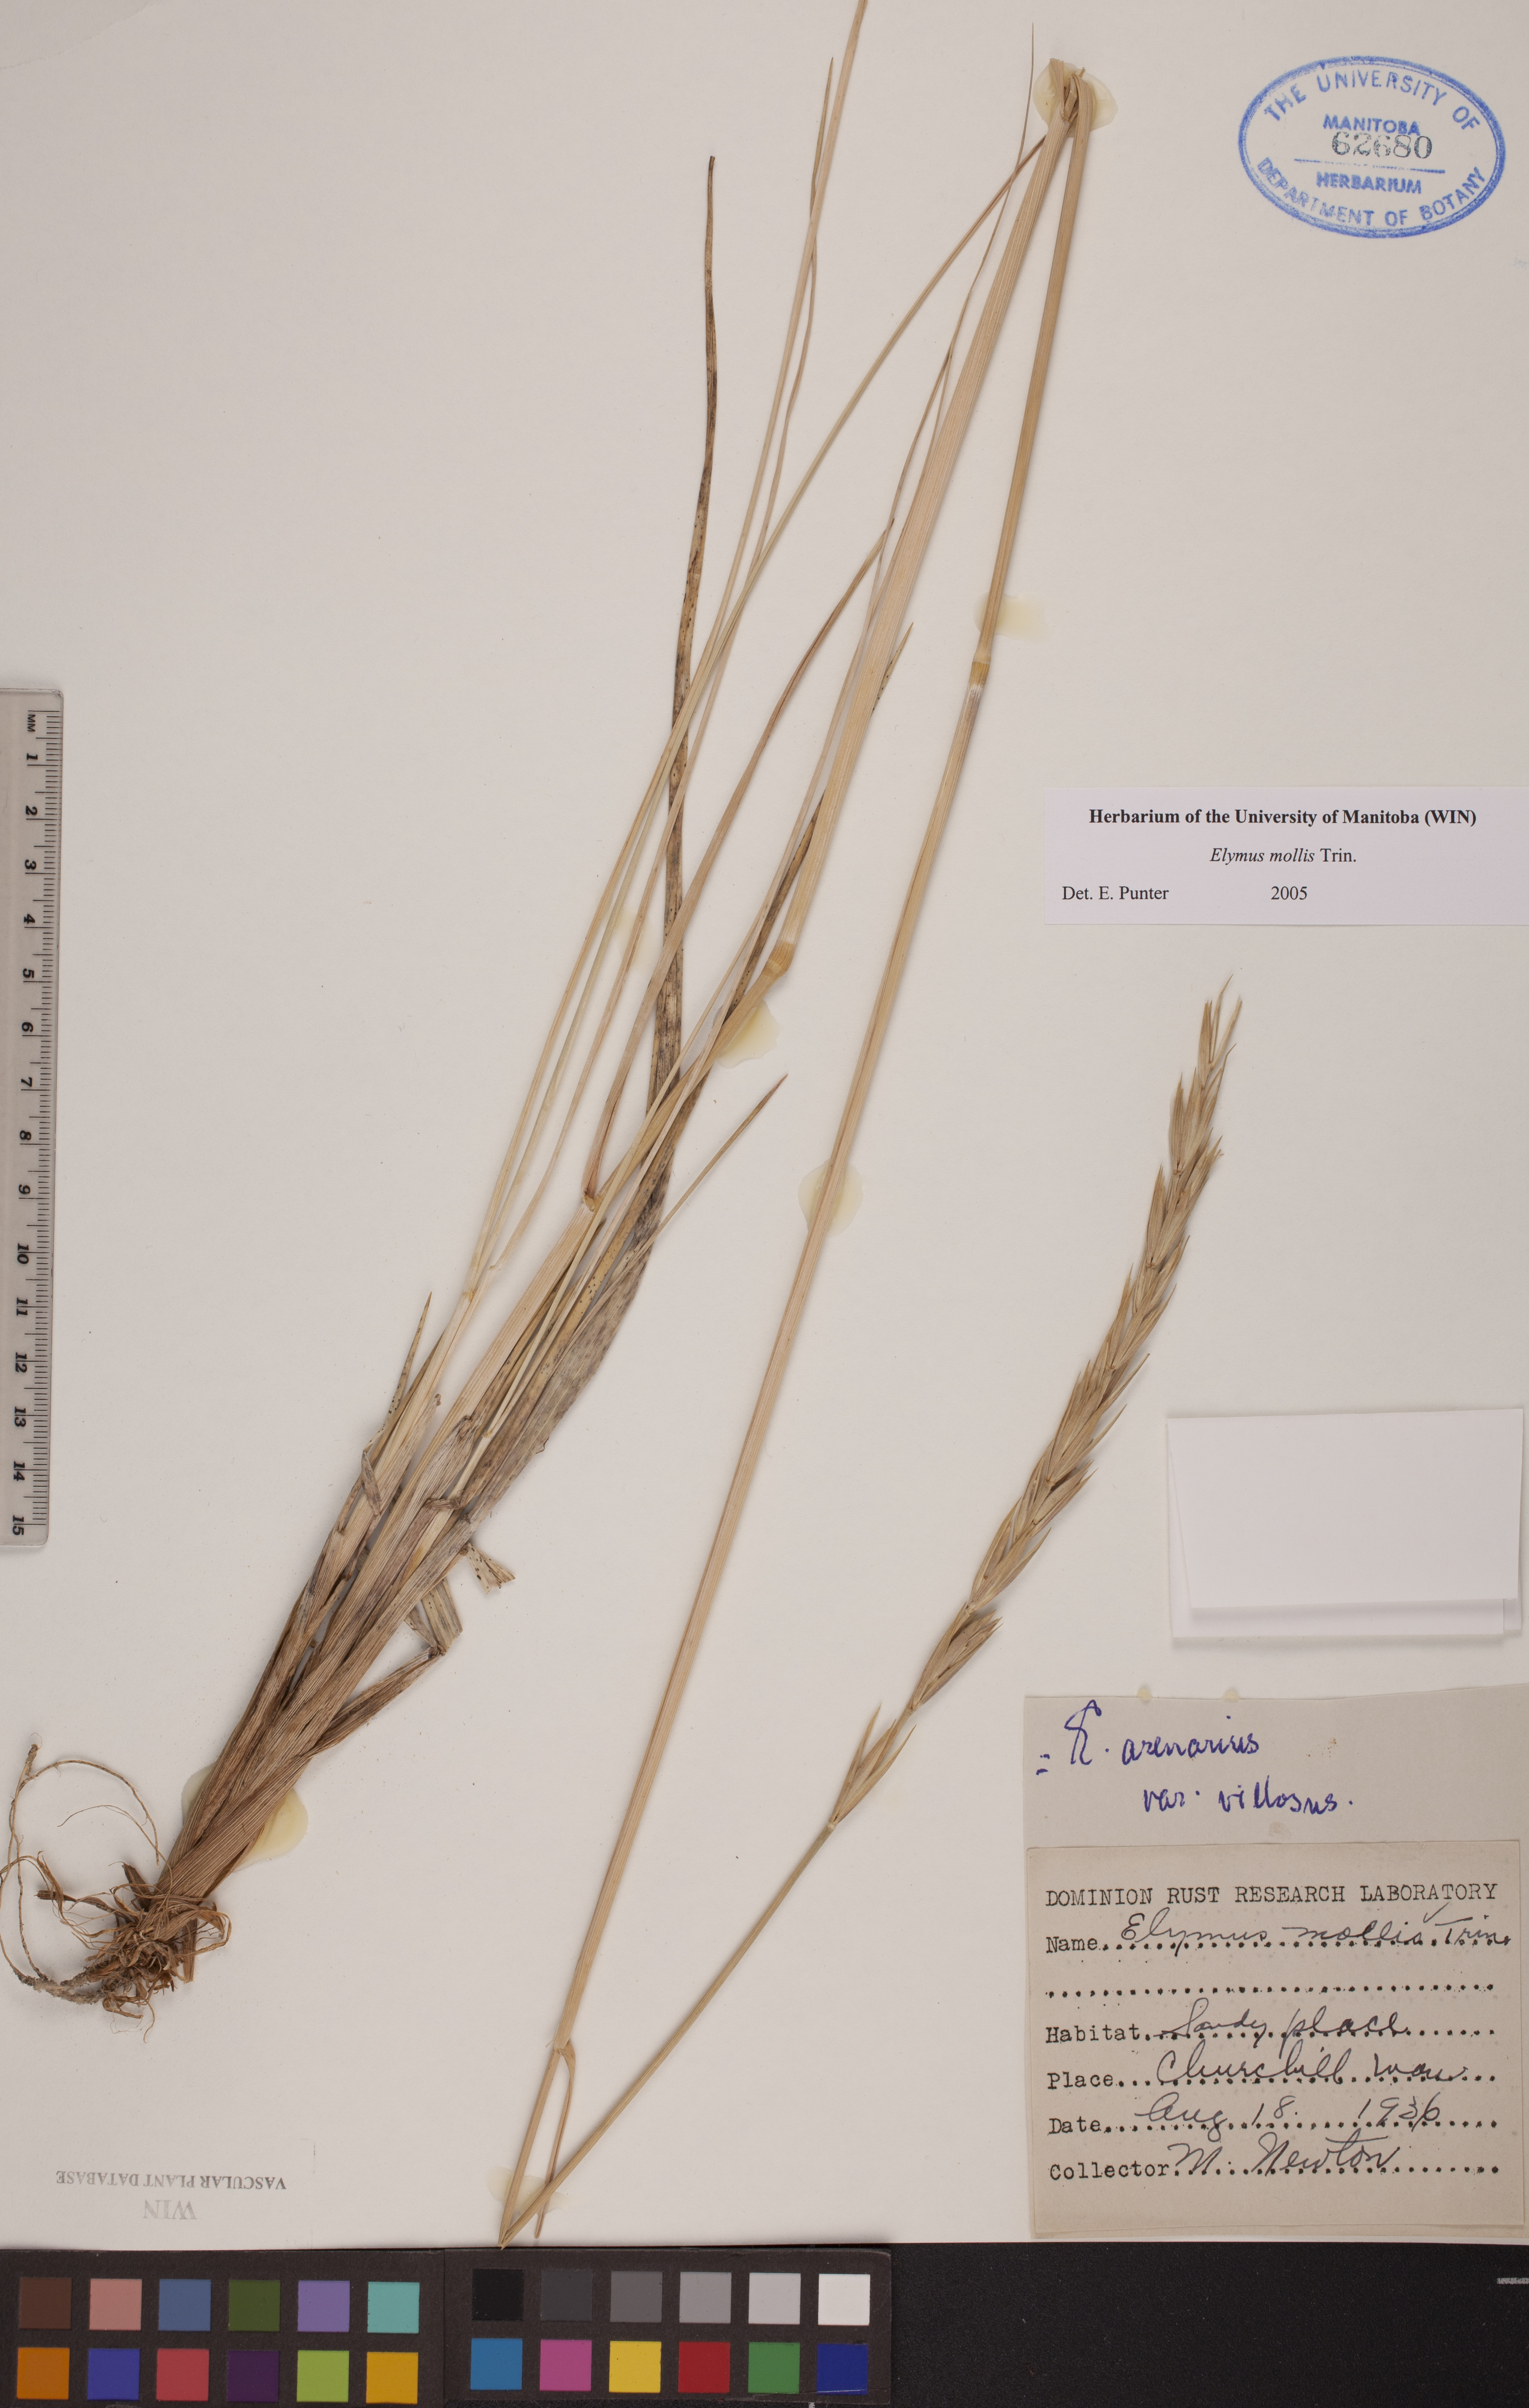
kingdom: Plantae
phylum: Tracheophyta
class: Liliopsida
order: Poales
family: Poaceae
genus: Leymus
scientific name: Leymus mollis
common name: American dune grass
